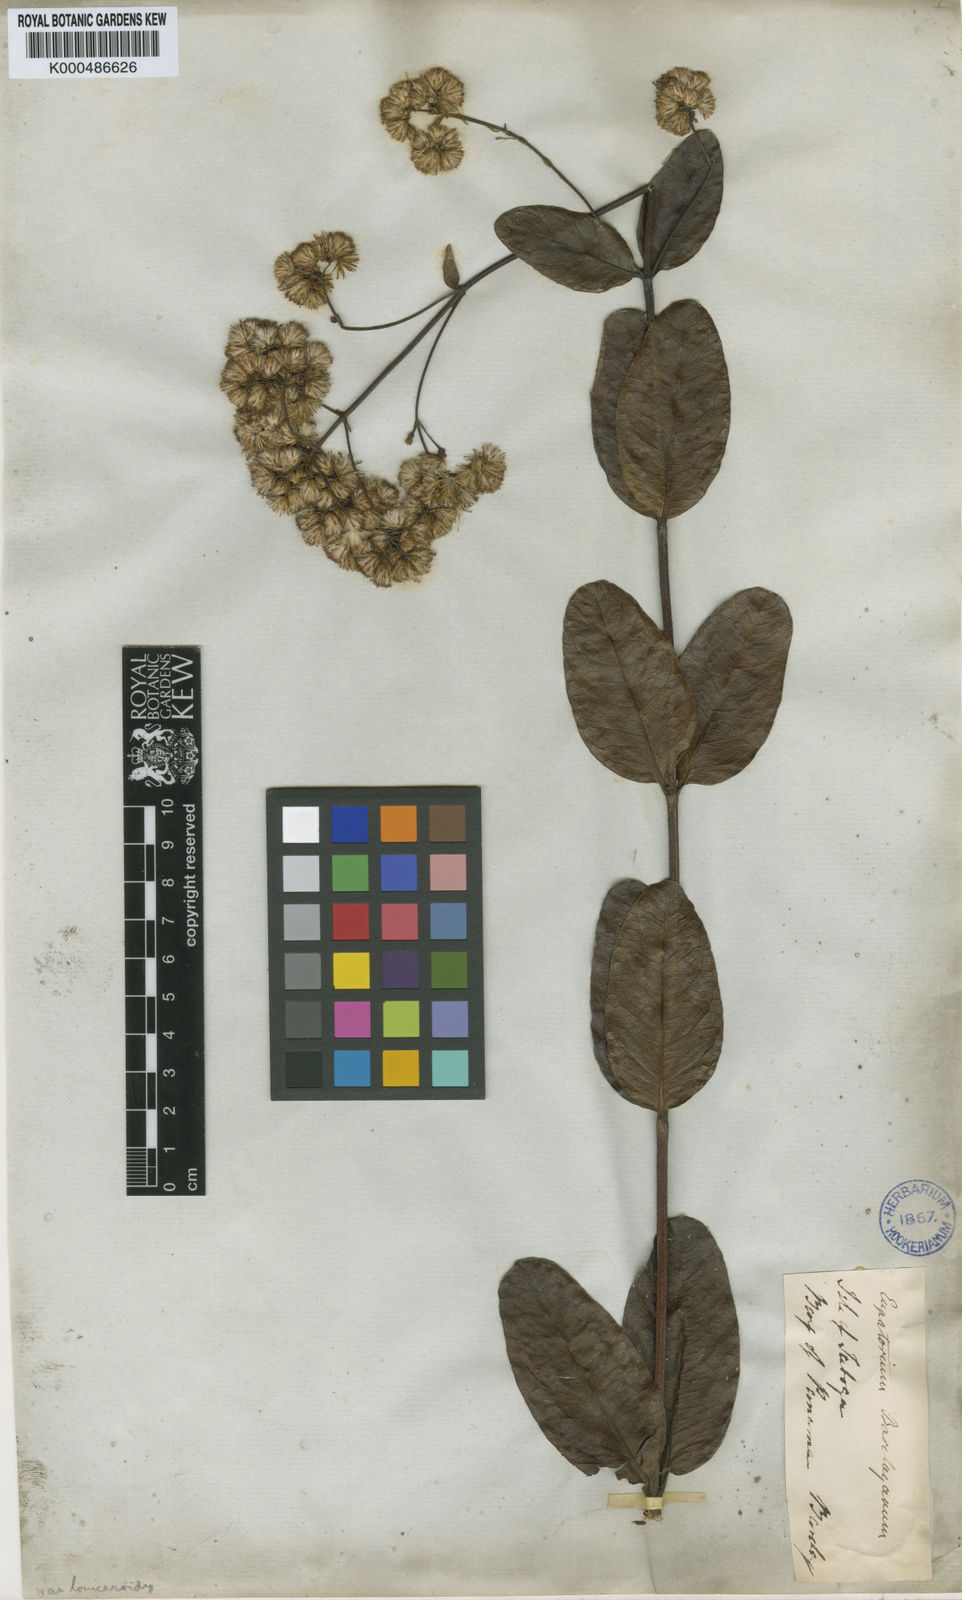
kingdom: Plantae
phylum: Tracheophyta
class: Magnoliopsida
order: Asterales
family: Asteraceae
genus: Ayapana
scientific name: Ayapana amygdalina
